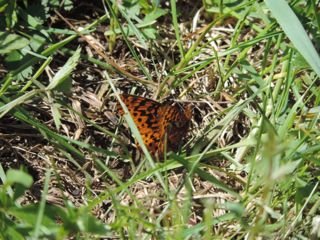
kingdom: Animalia
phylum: Arthropoda
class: Insecta
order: Lepidoptera
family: Nymphalidae
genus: Clossiana
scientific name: Clossiana toddi
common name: Meadow Fritillary
